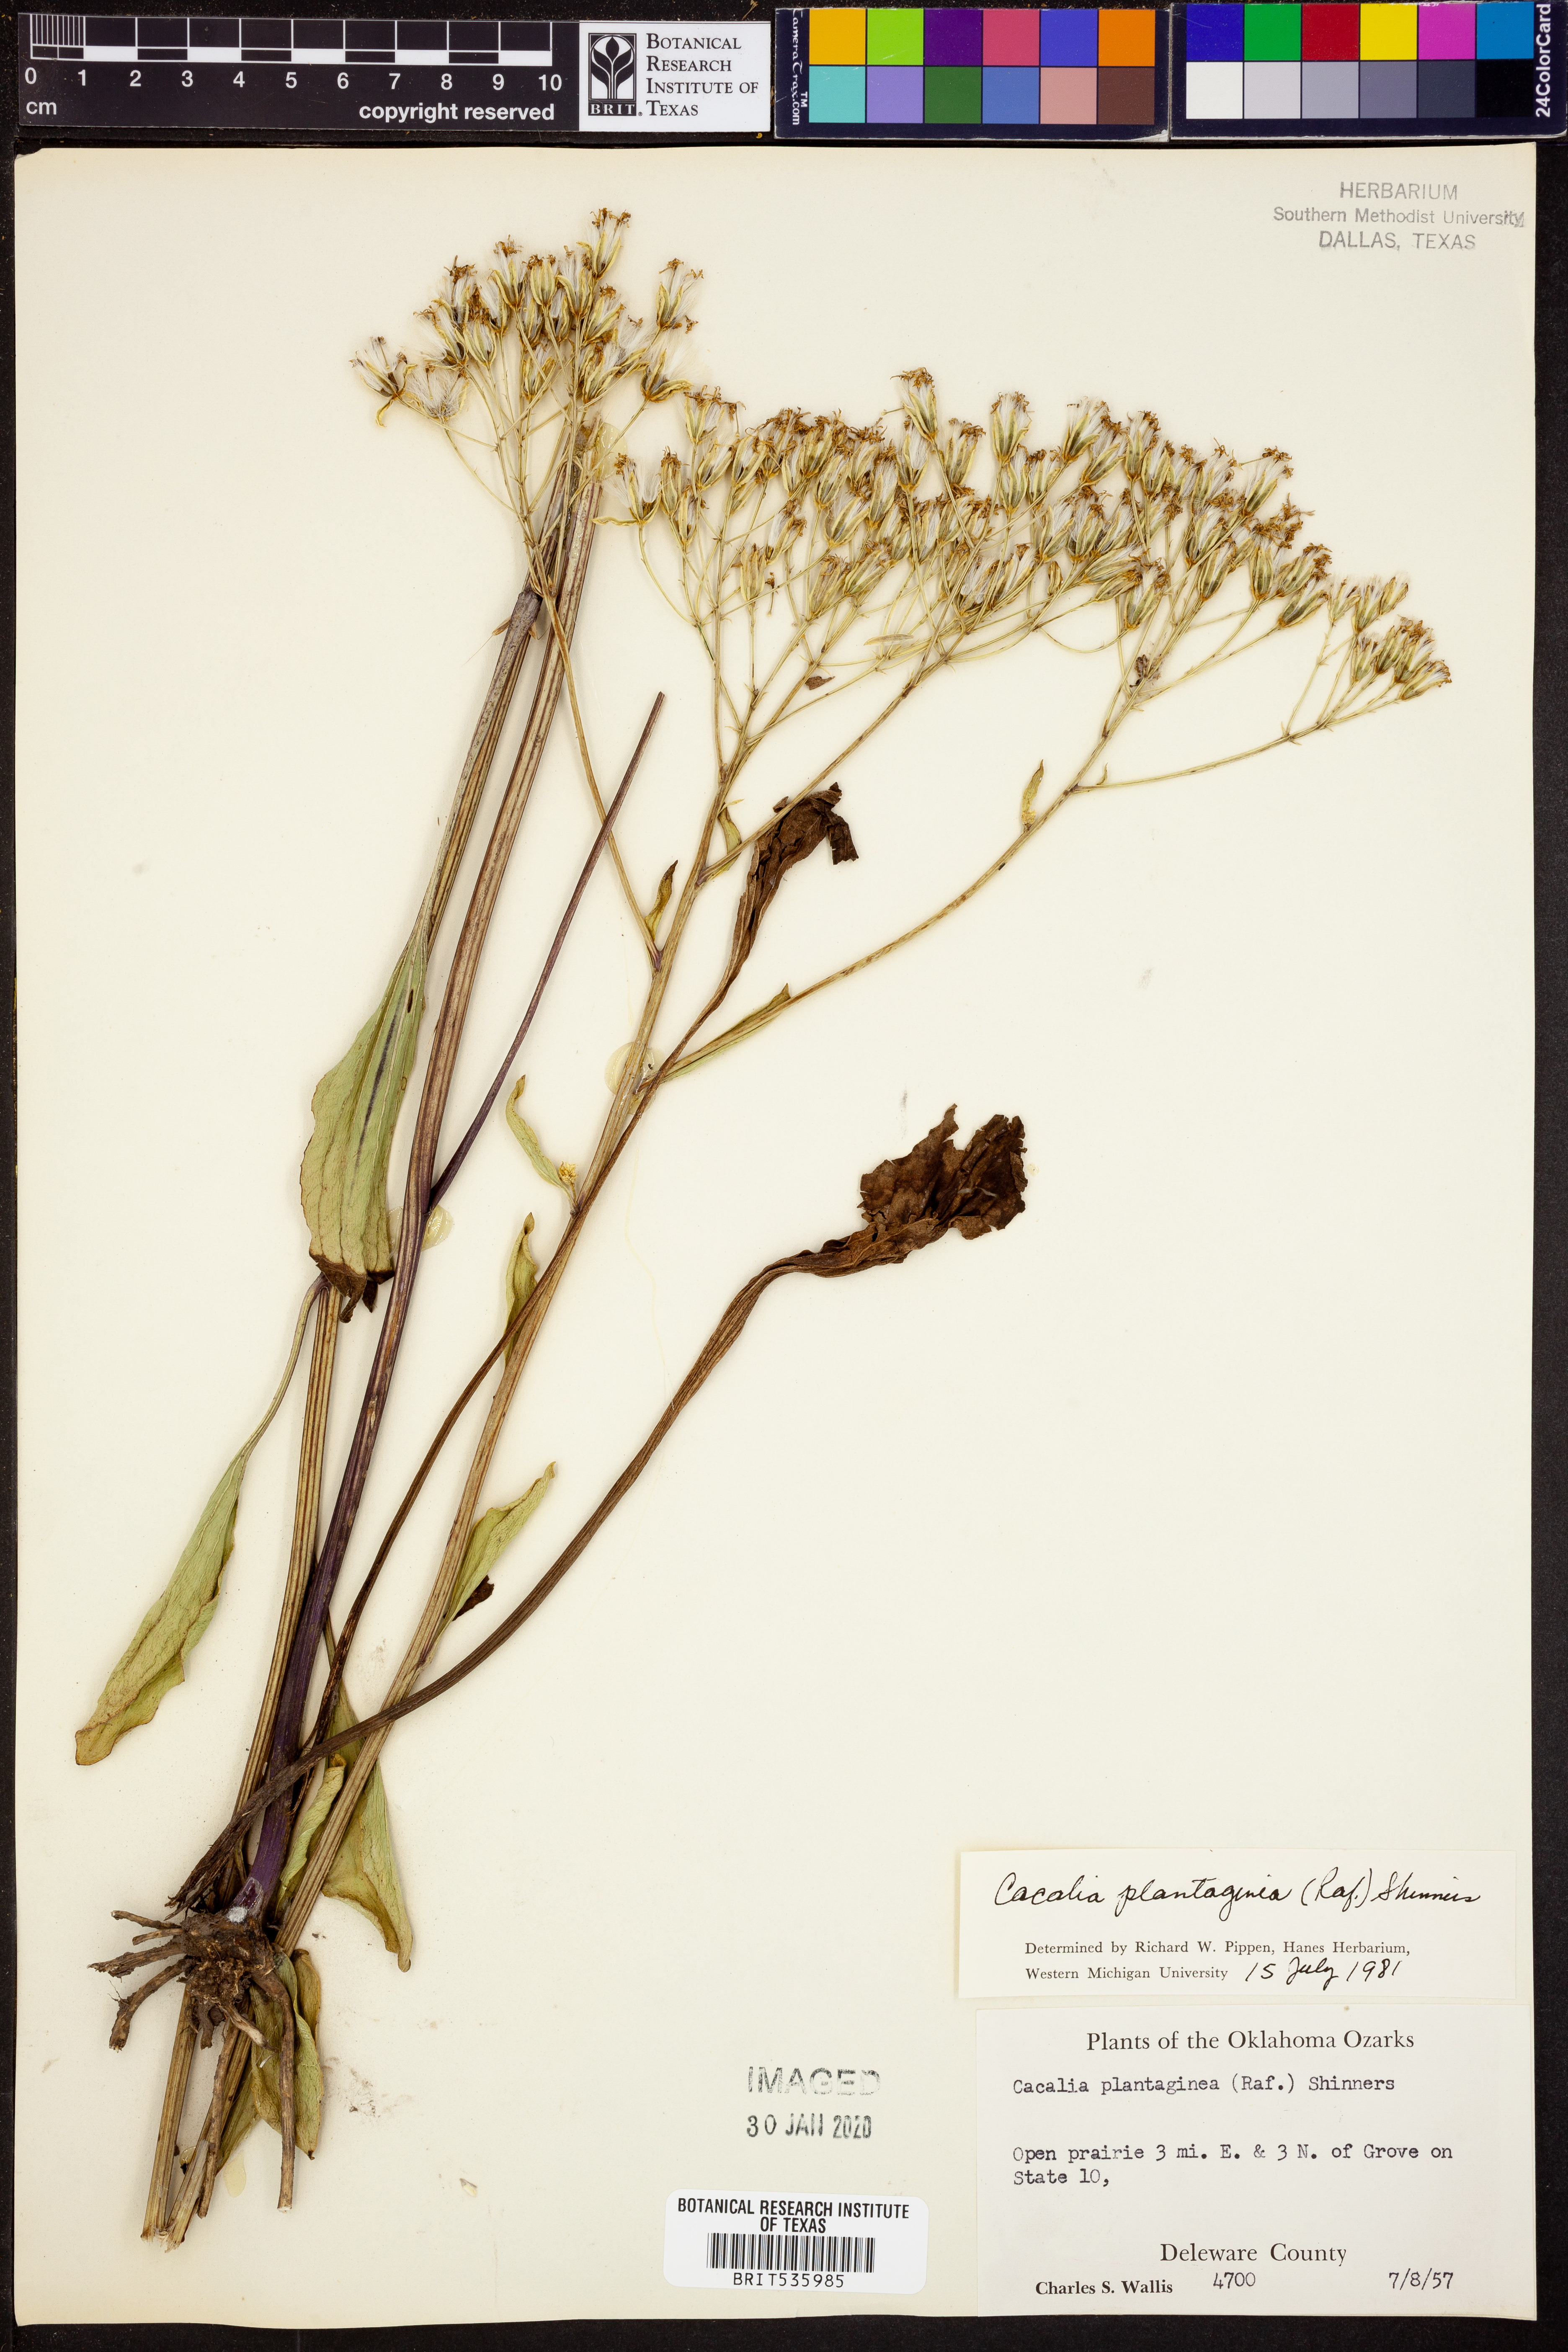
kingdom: Plantae
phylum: Tracheophyta
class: Magnoliopsida
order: Asterales
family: Asteraceae
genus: Arnoglossum
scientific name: Arnoglossum plantagineum
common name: Groove-stemmed indian-plantain
